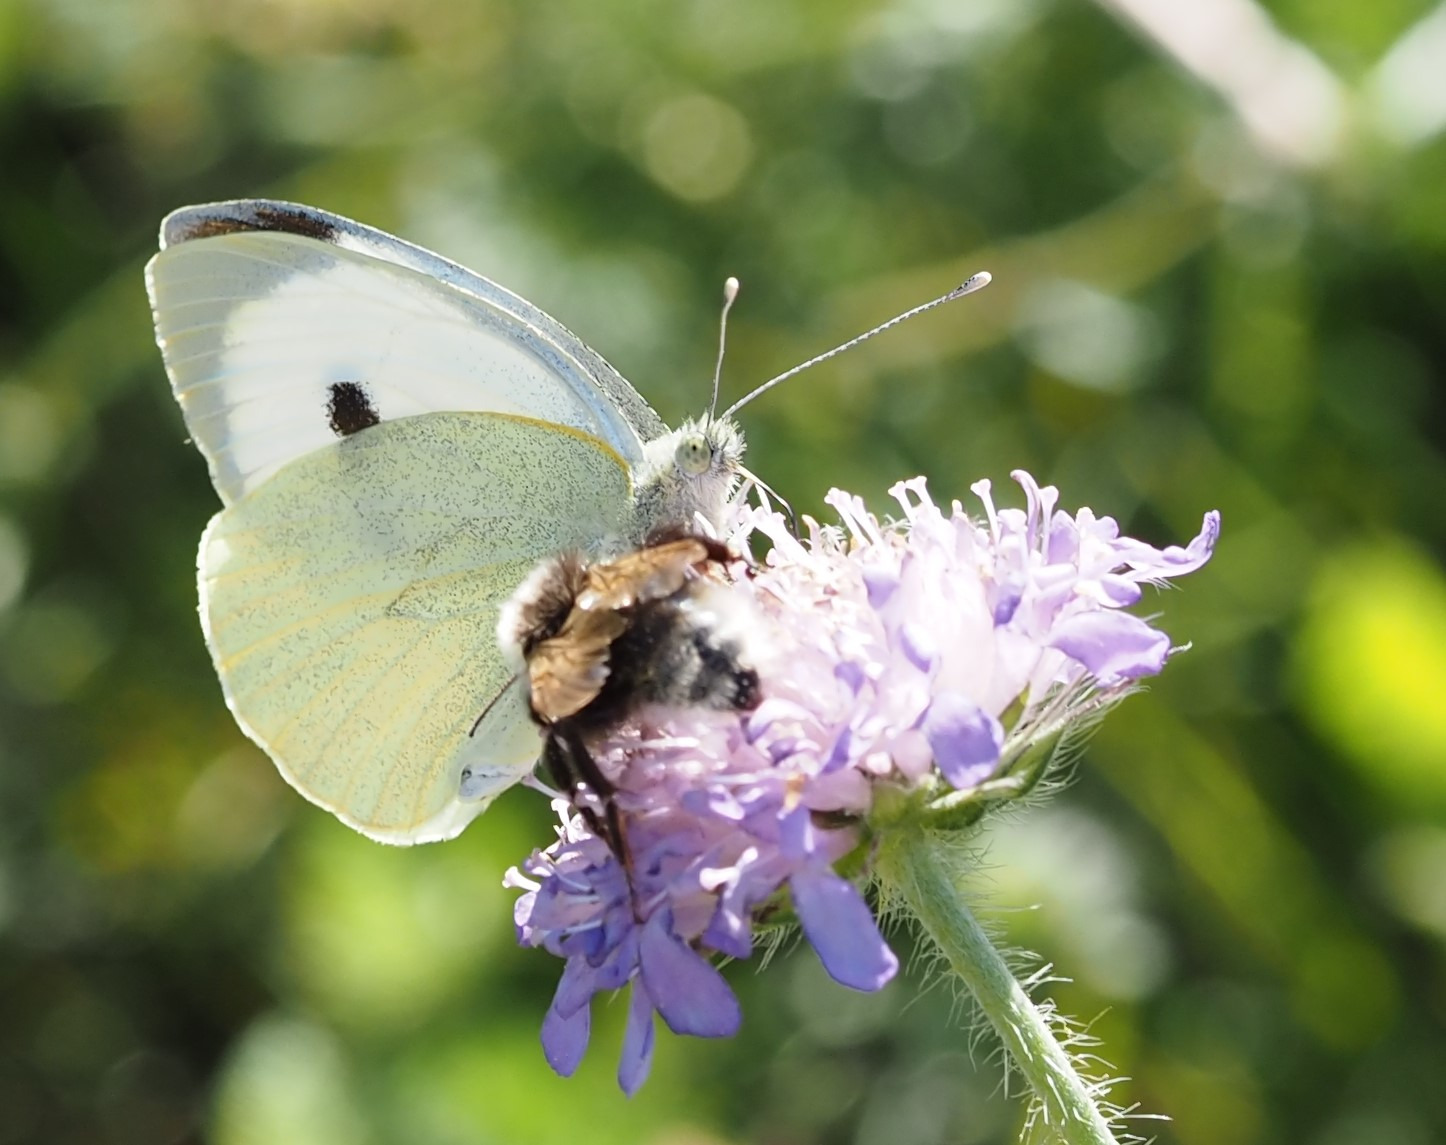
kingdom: Animalia
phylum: Arthropoda
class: Insecta
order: Lepidoptera
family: Pieridae
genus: Pieris
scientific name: Pieris brassicae
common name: Stor kålsommerfugl
